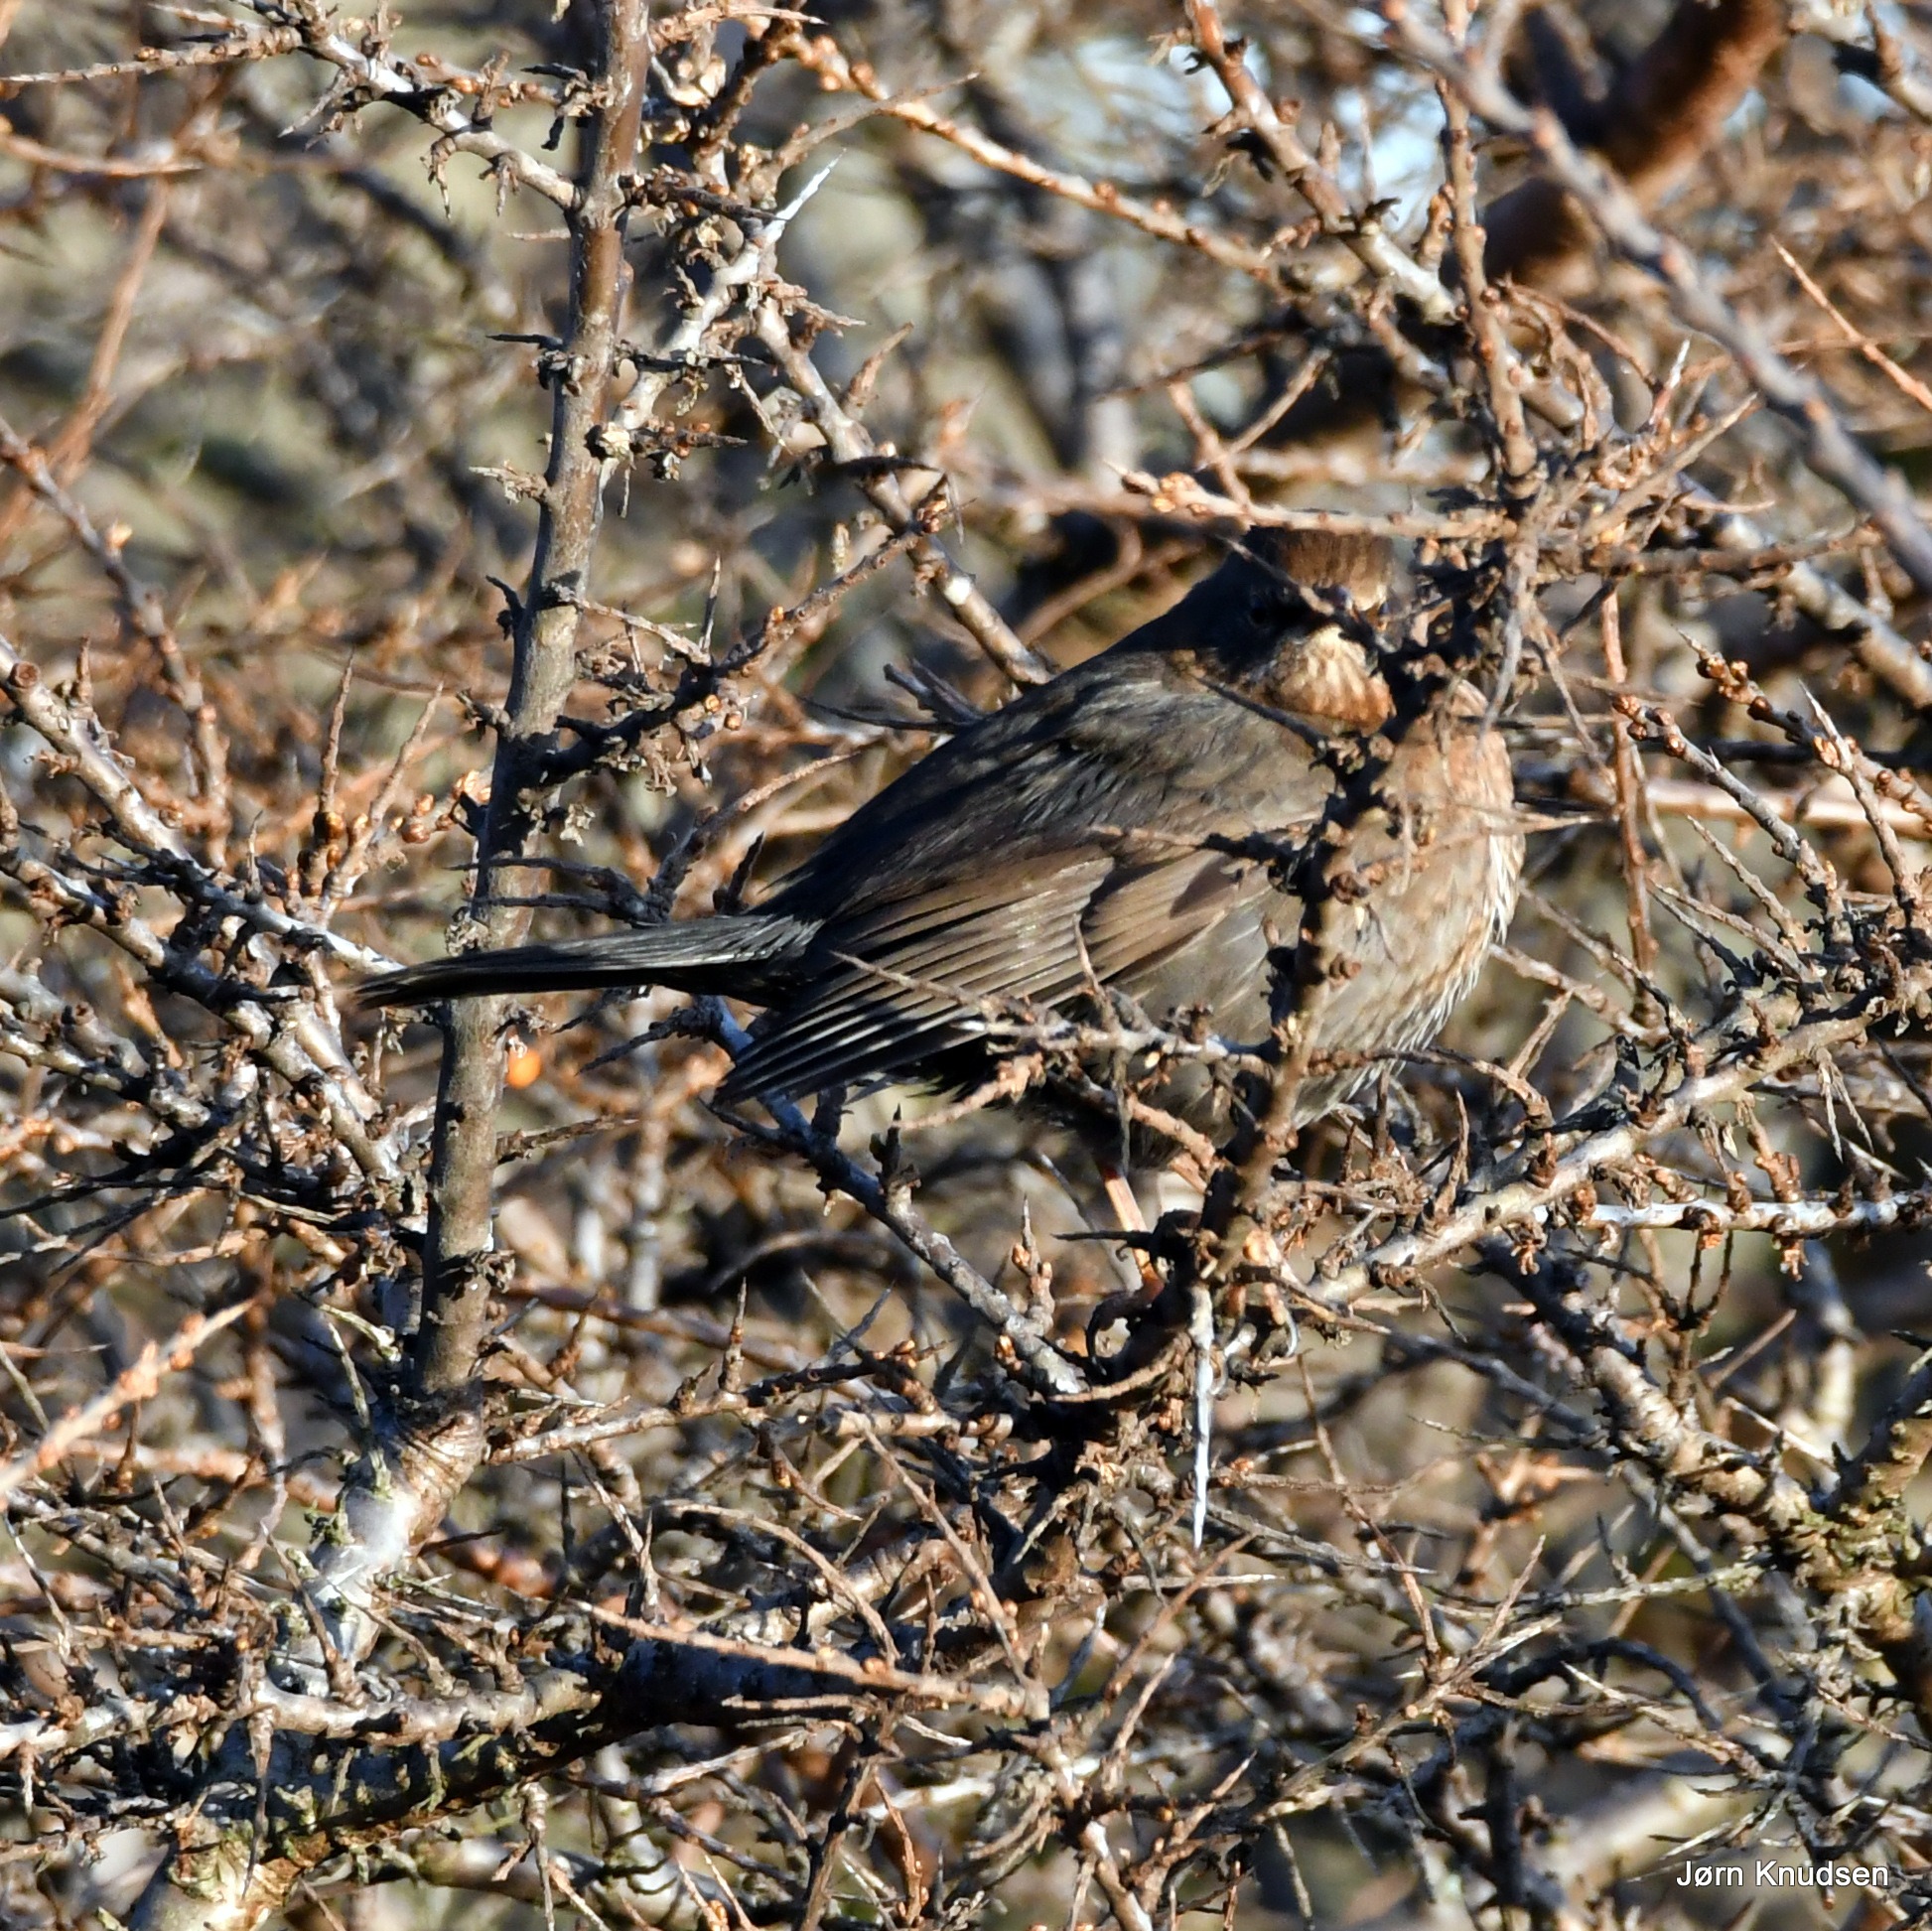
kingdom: Animalia
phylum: Chordata
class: Aves
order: Passeriformes
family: Turdidae
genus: Turdus
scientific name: Turdus merula
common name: Solsort
